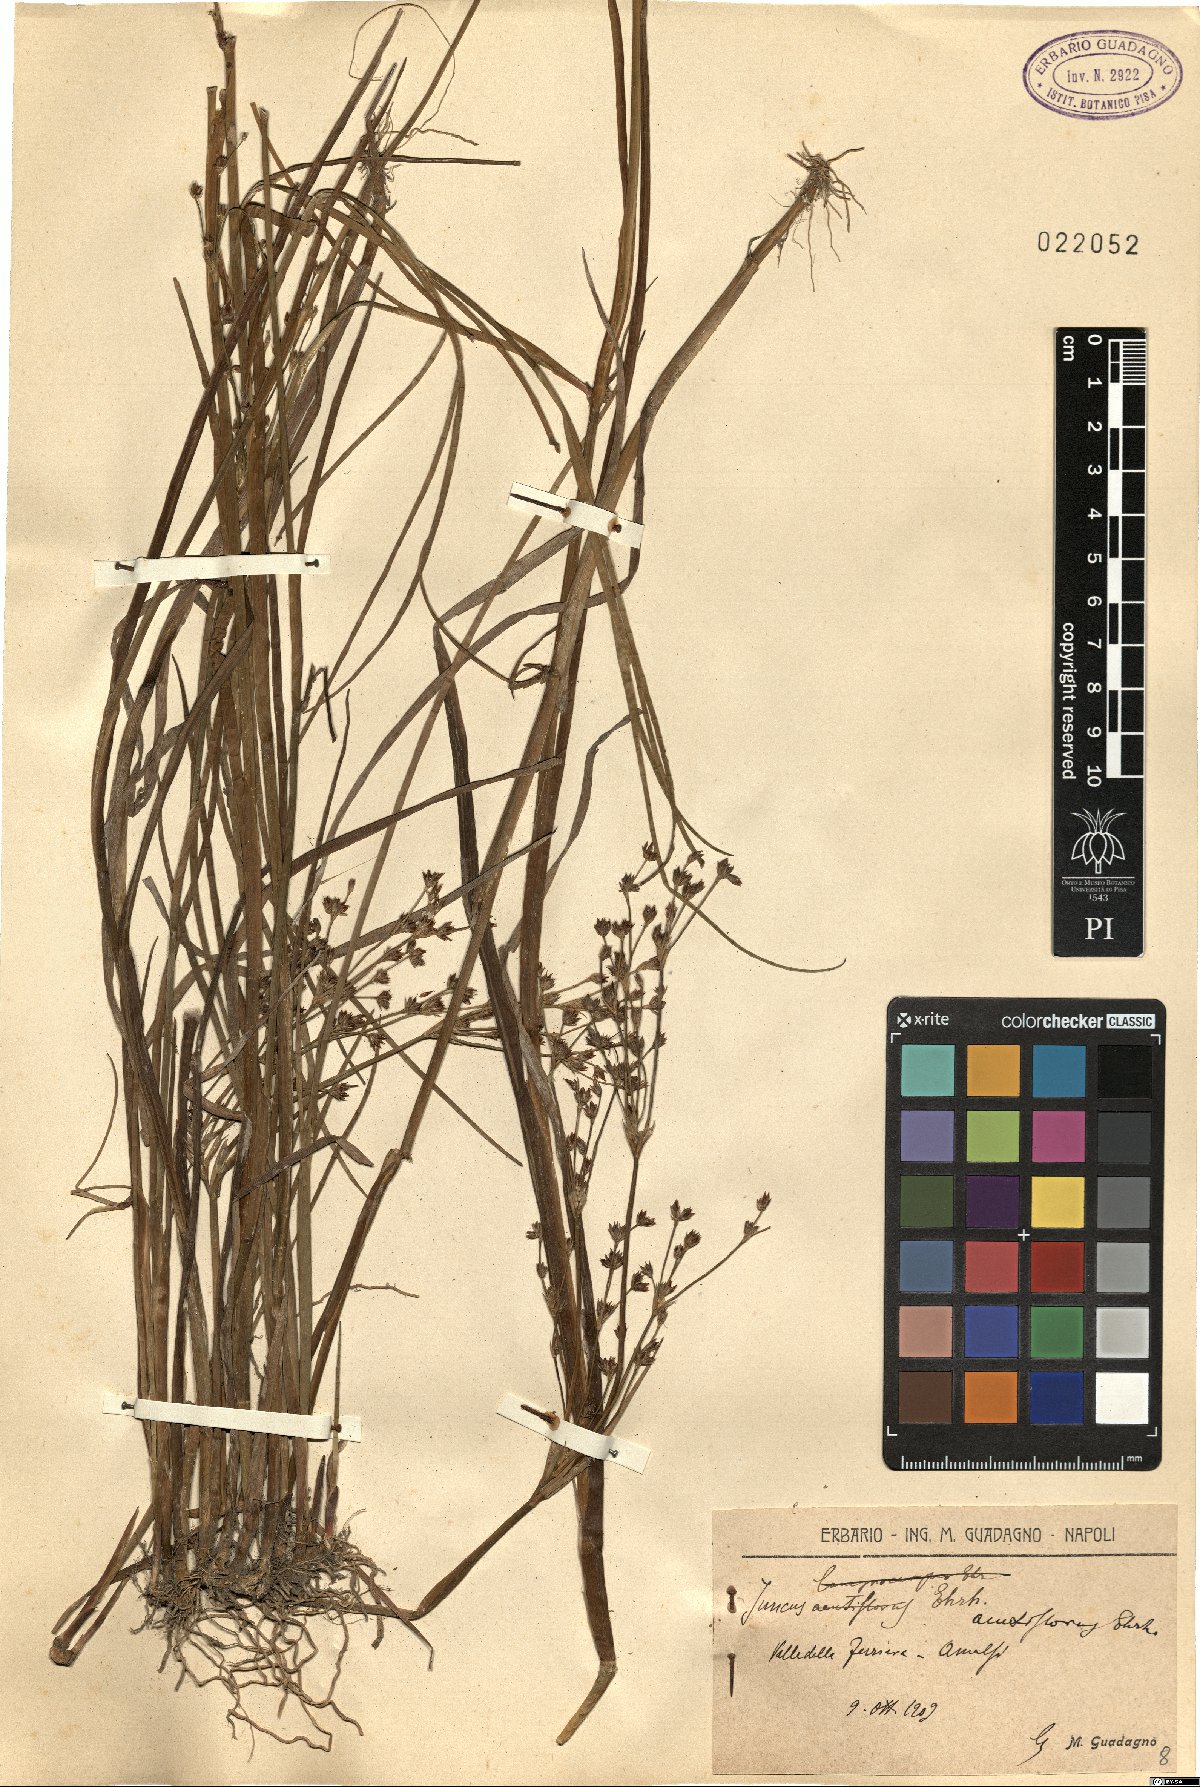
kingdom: Plantae
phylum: Tracheophyta
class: Liliopsida
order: Poales
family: Juncaceae
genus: Juncus
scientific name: Juncus acutiflorus
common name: Sharp-flowered rush
